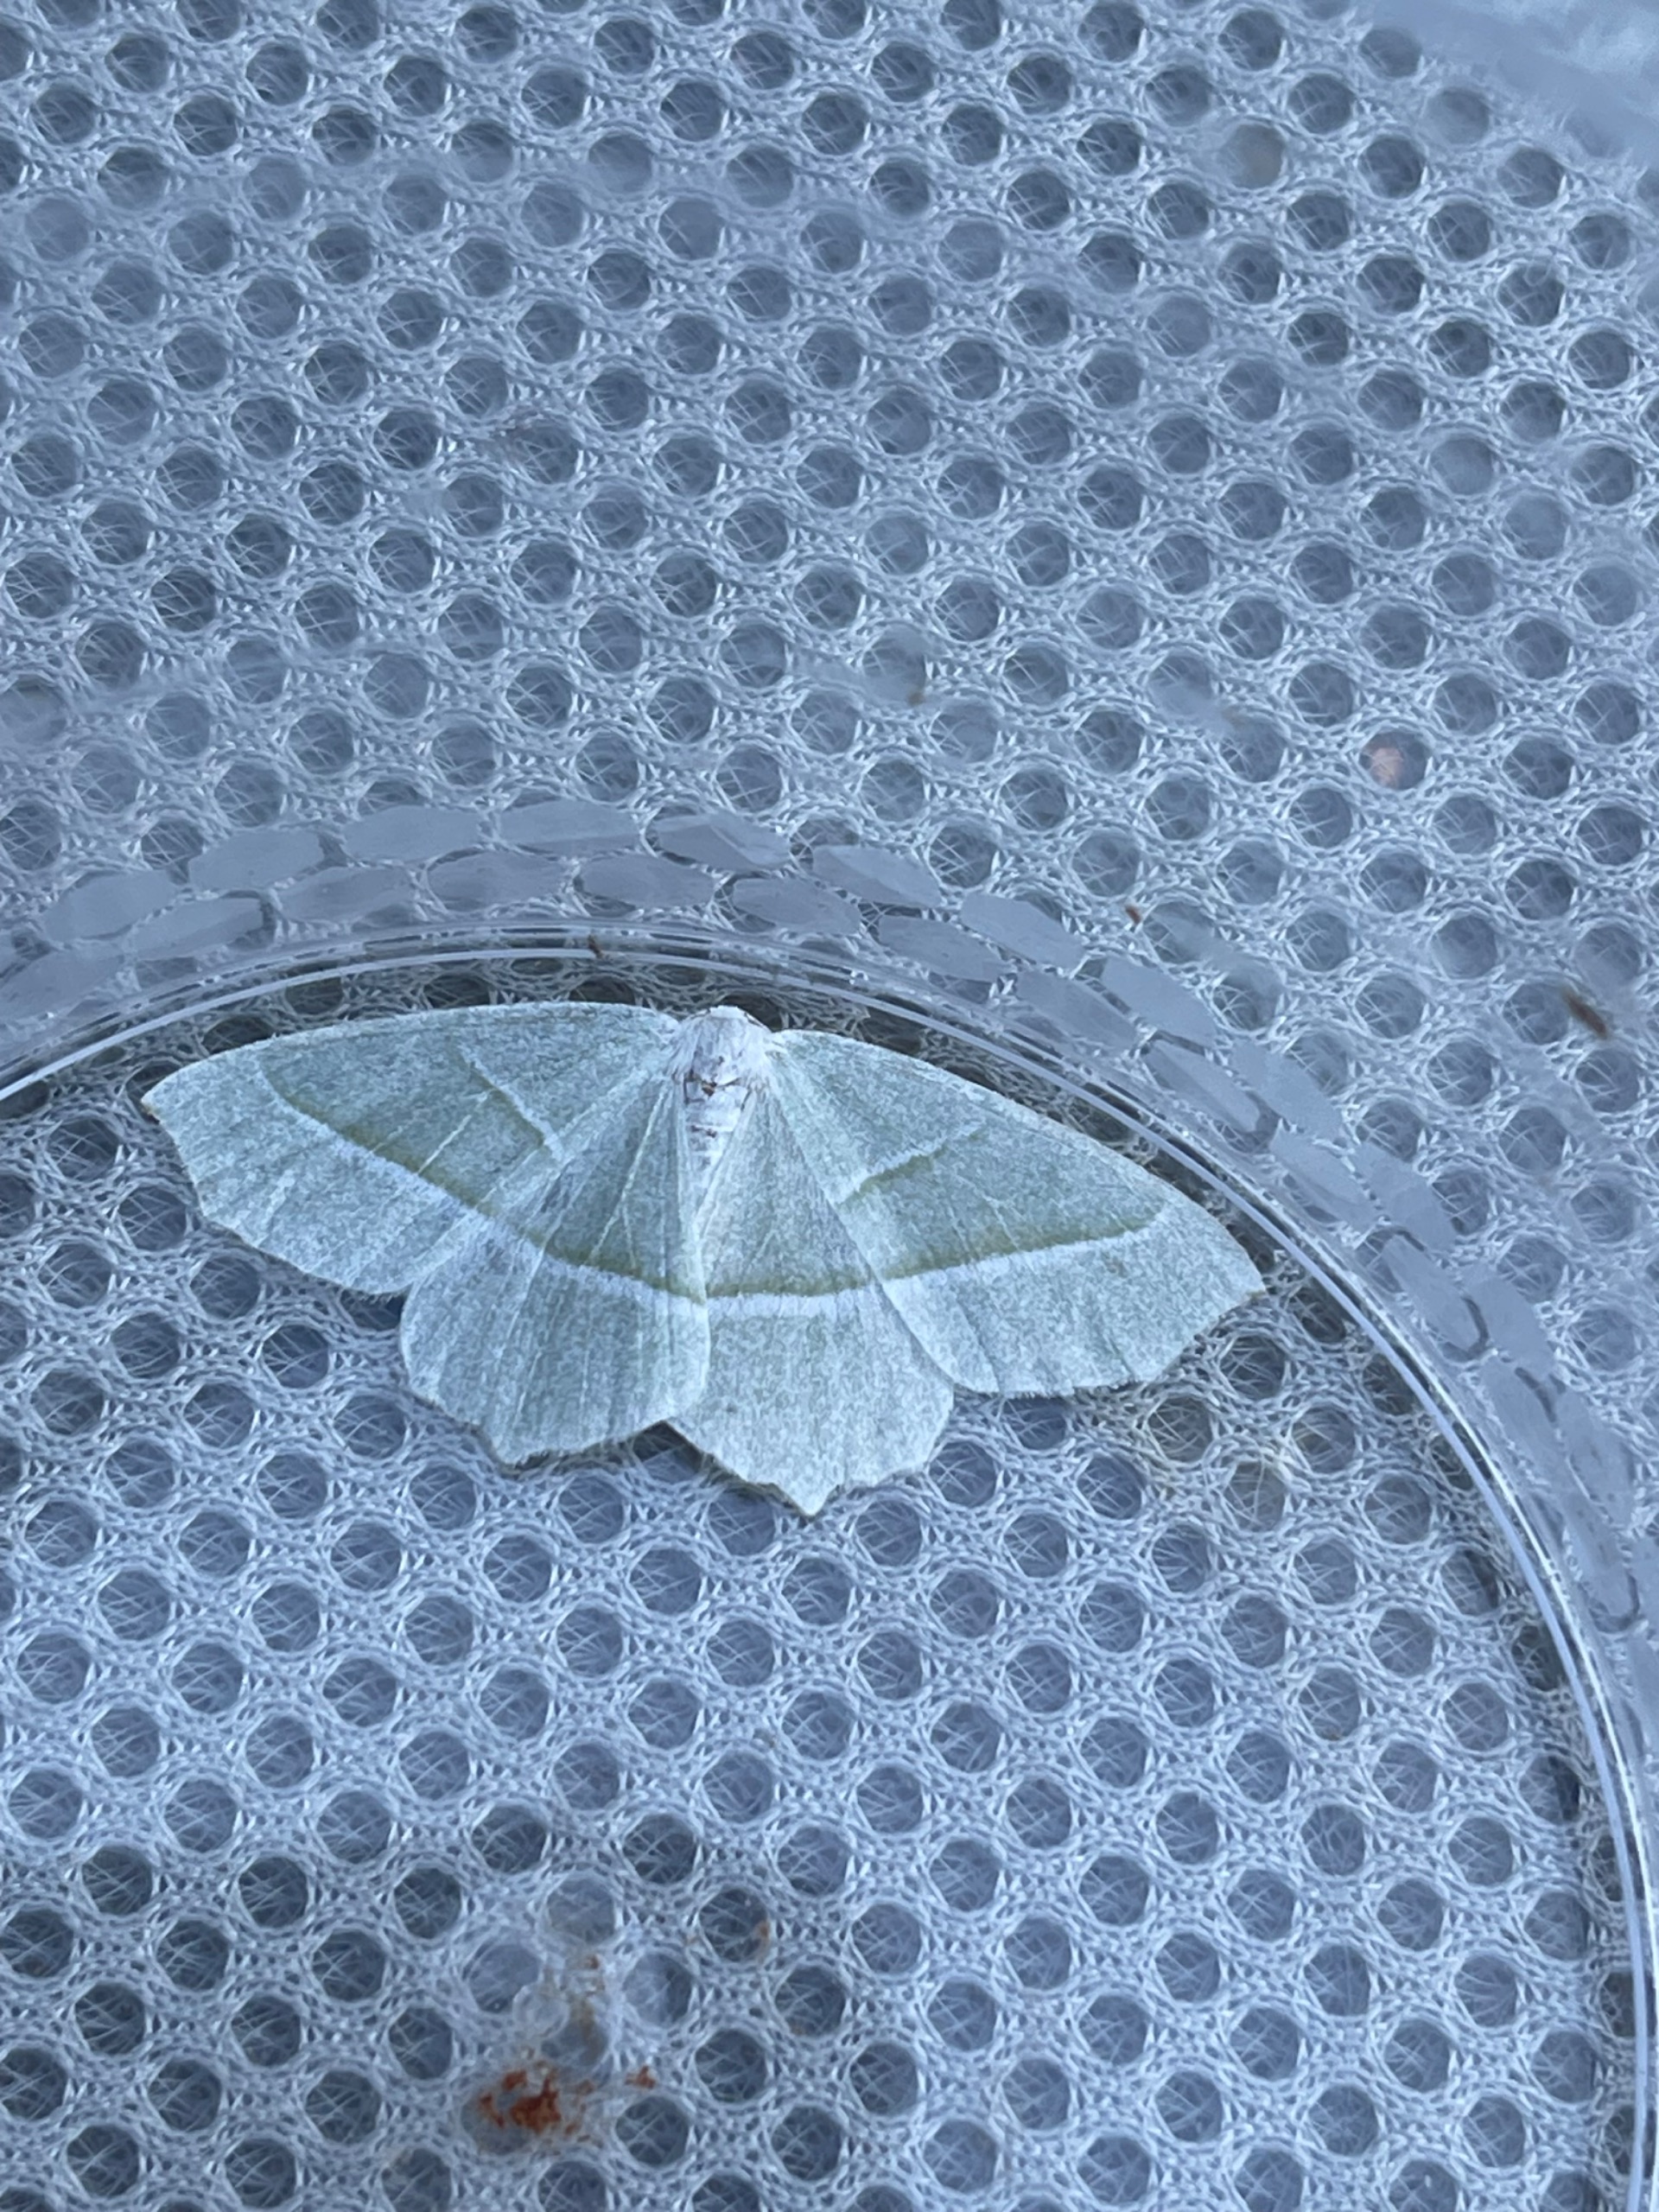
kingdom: Animalia
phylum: Arthropoda
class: Insecta
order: Lepidoptera
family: Geometridae
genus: Campaea
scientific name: Campaea margaritaria
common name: Perlemåler
